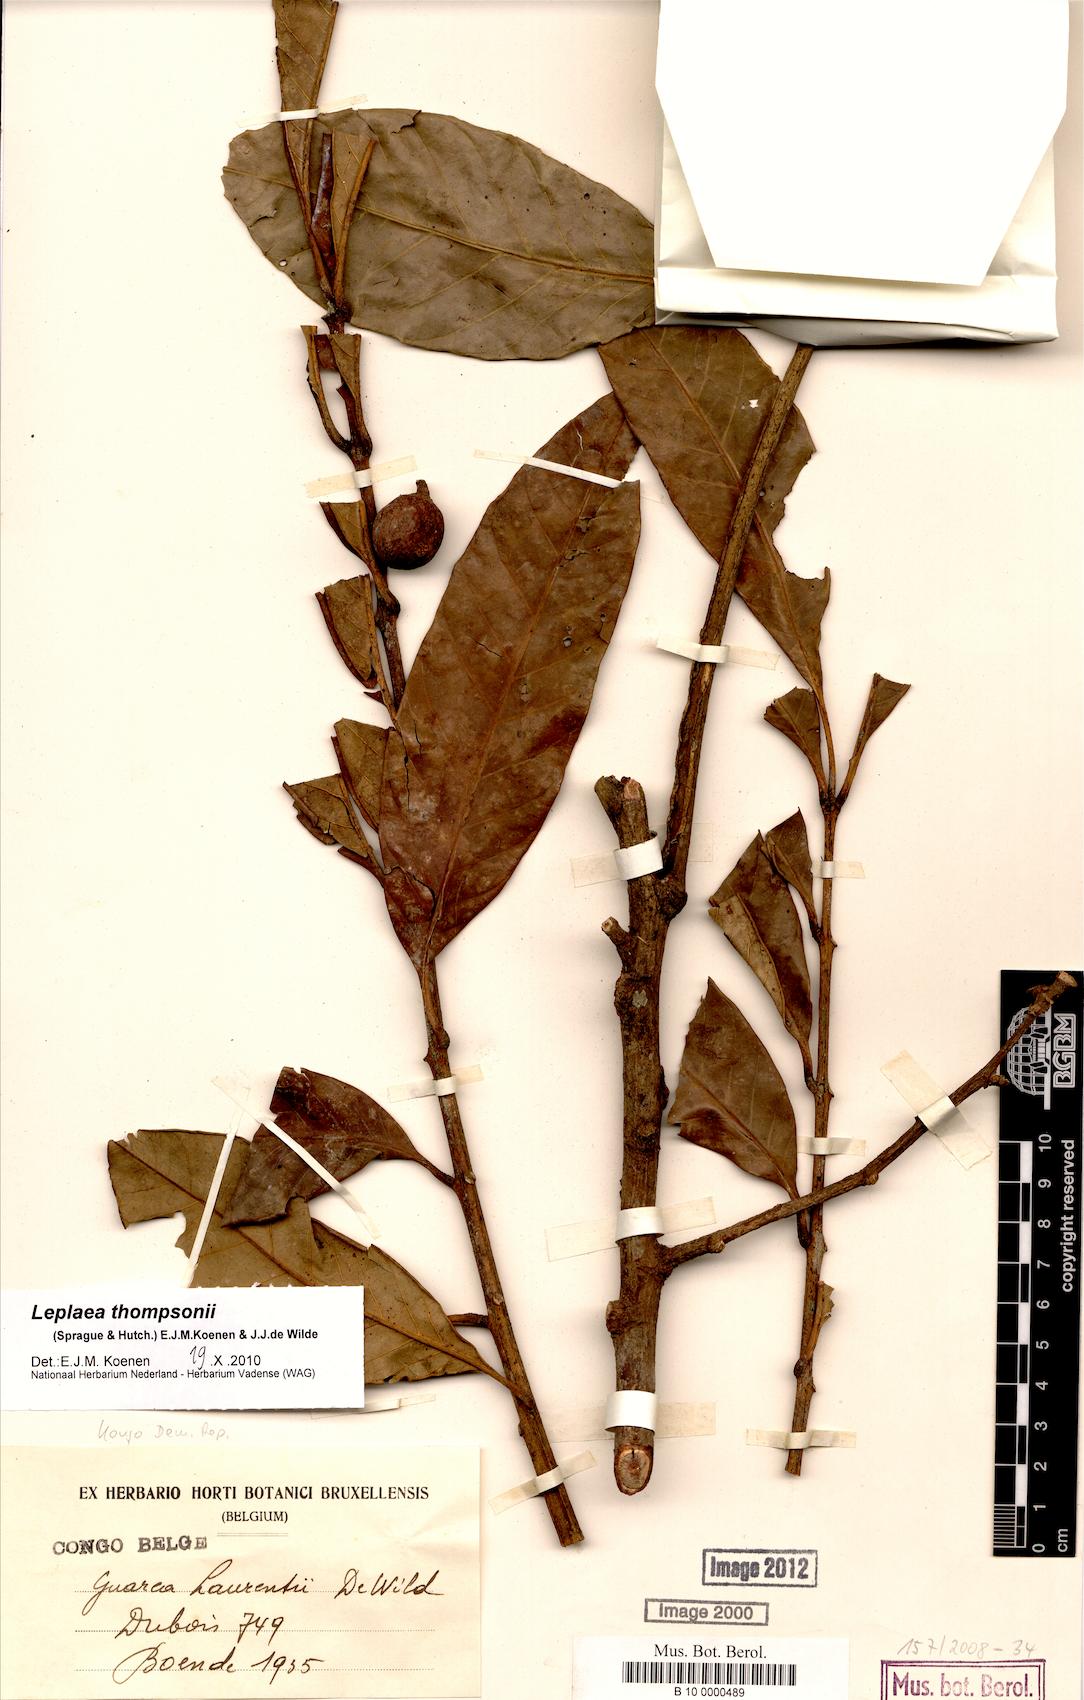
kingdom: Plantae
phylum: Tracheophyta
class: Magnoliopsida
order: Sapindales
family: Meliaceae
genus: Leplaea
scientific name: Leplaea thompsonii
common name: Black guarea
